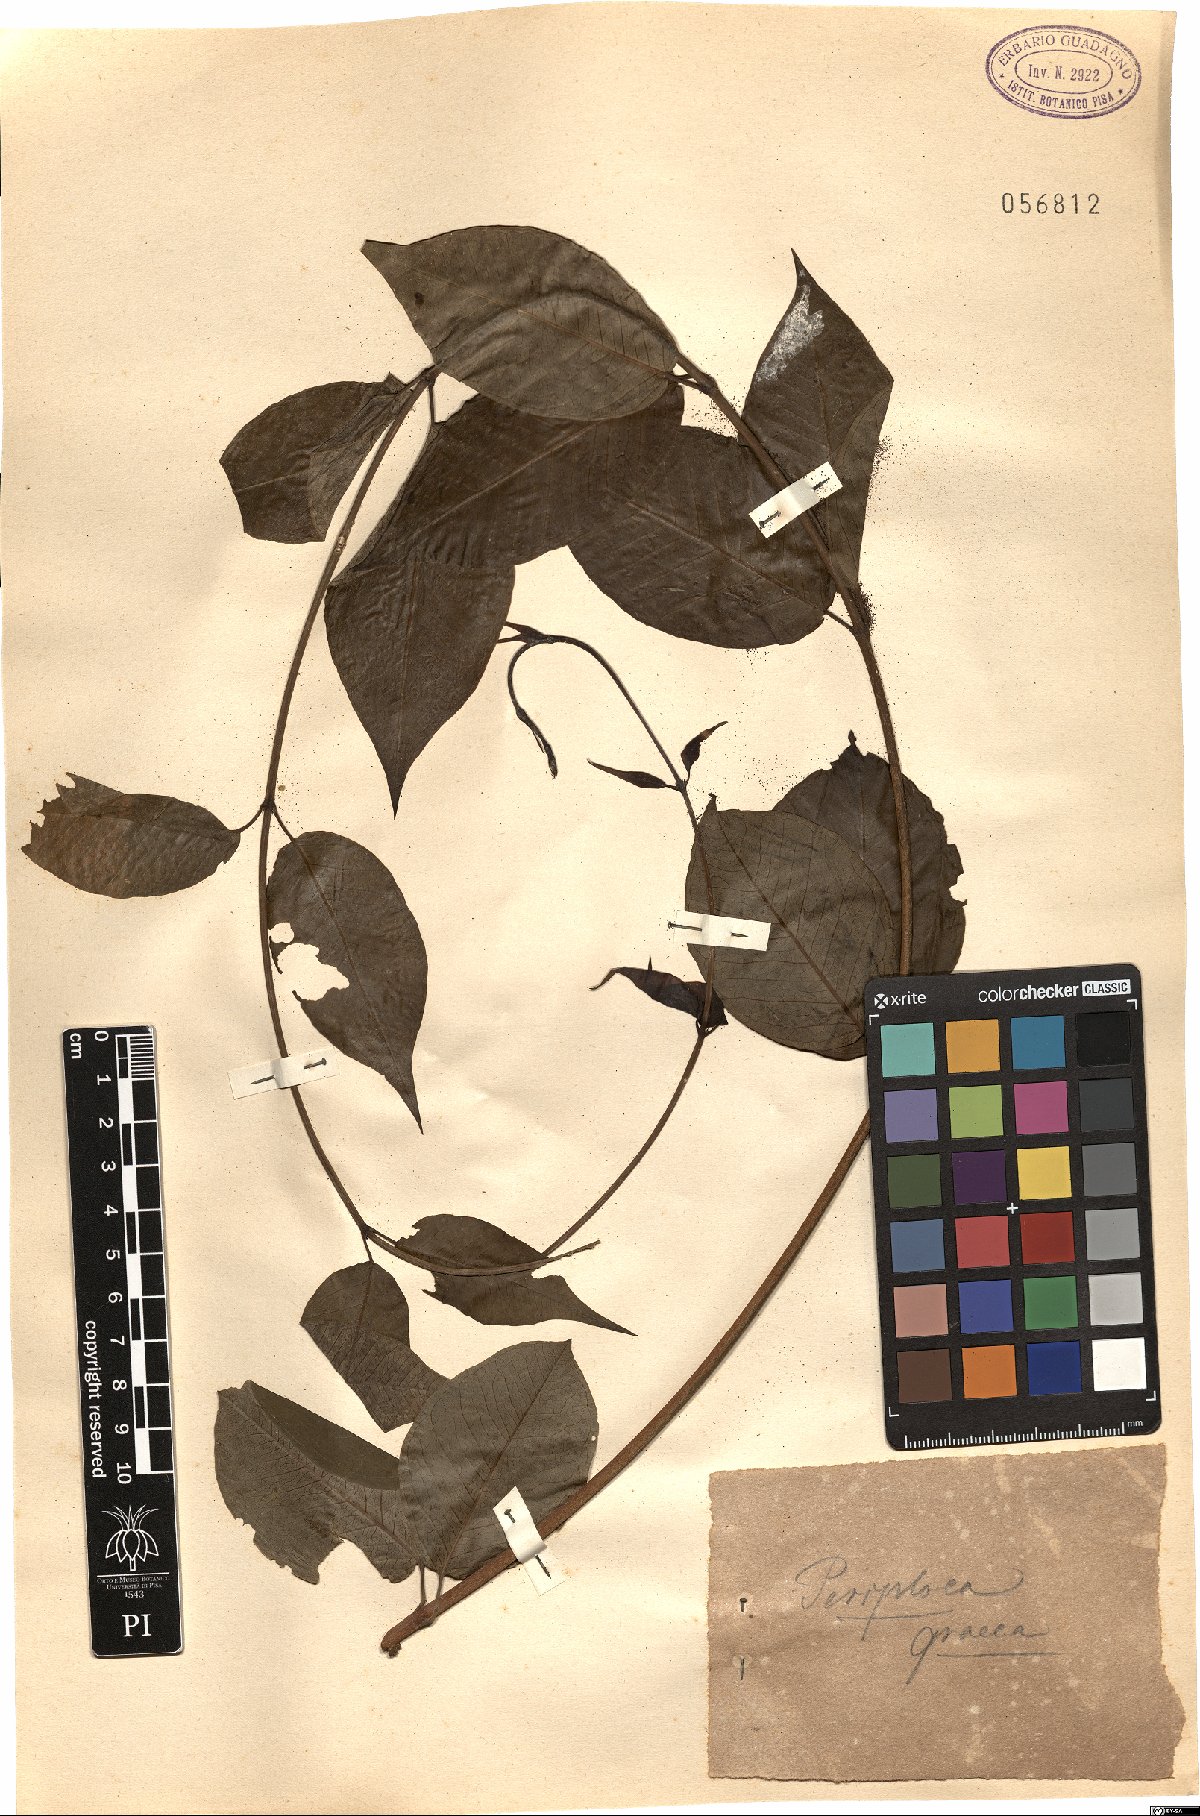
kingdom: Plantae
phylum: Tracheophyta
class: Magnoliopsida
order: Gentianales
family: Apocynaceae
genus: Periploca
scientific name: Periploca graeca
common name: Silkvine
